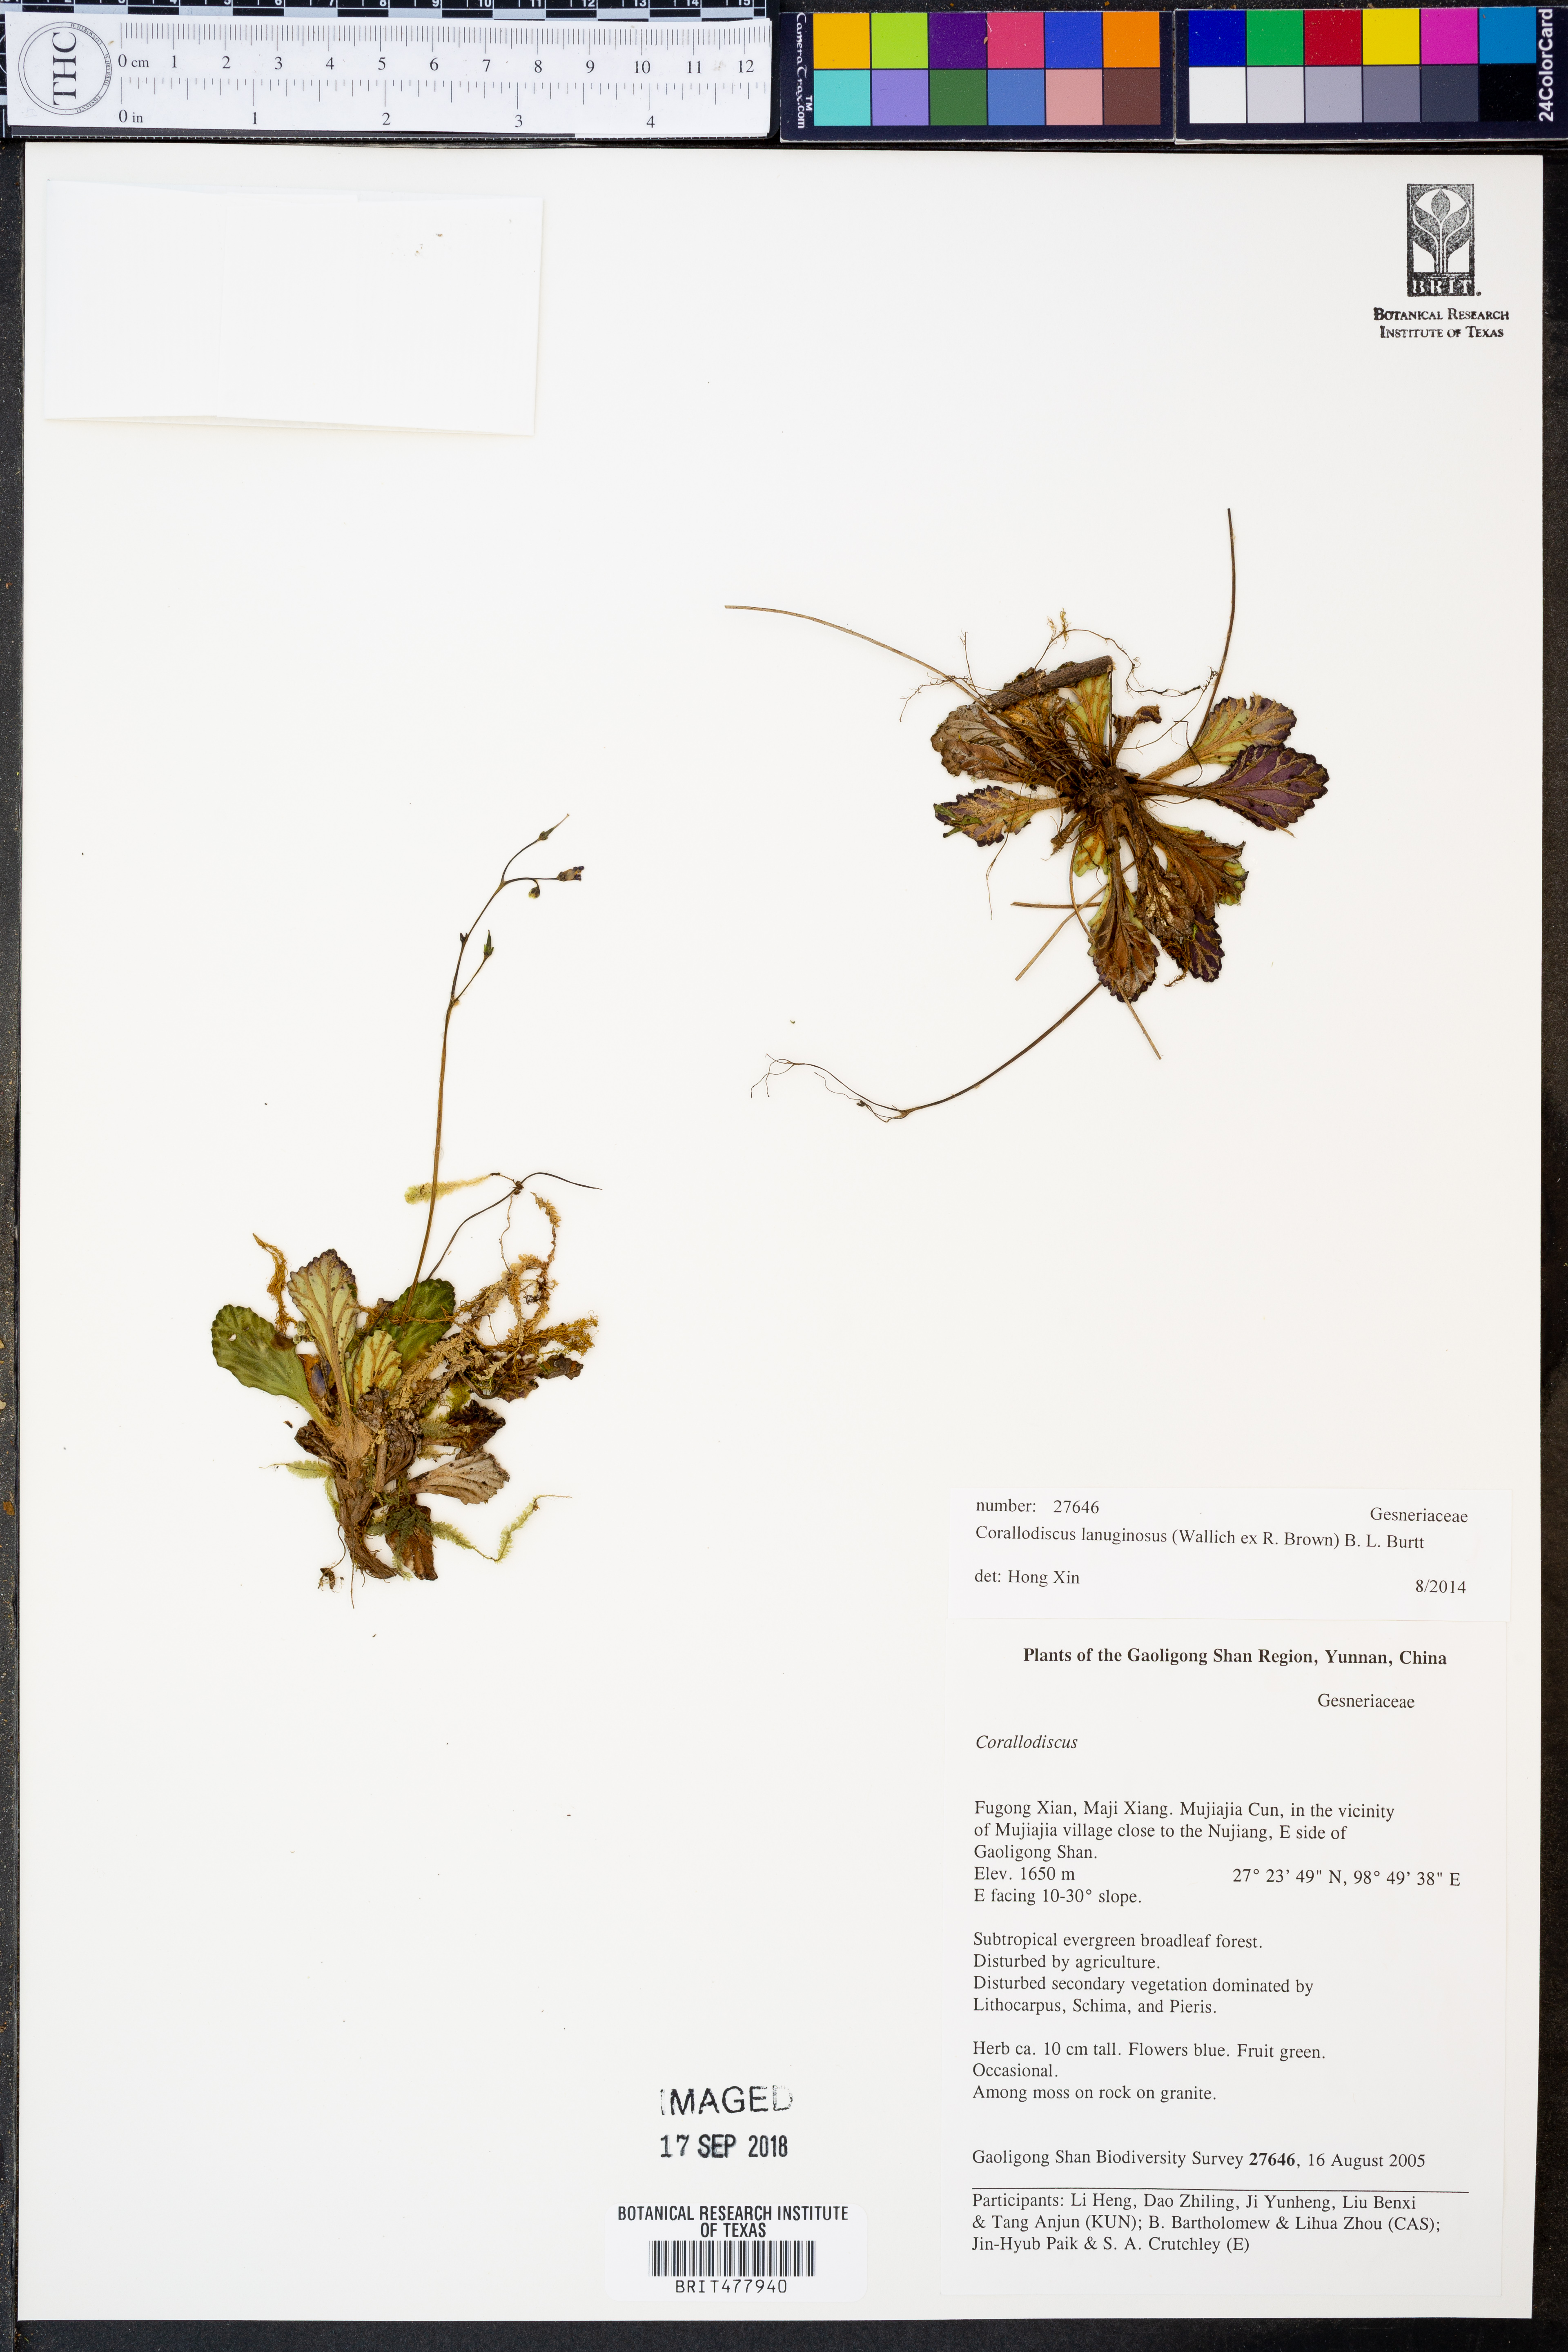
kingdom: Plantae
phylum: Tracheophyta
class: Magnoliopsida
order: Lamiales
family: Gesneriaceae
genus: Corallodiscus
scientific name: Corallodiscus lanuginosus
